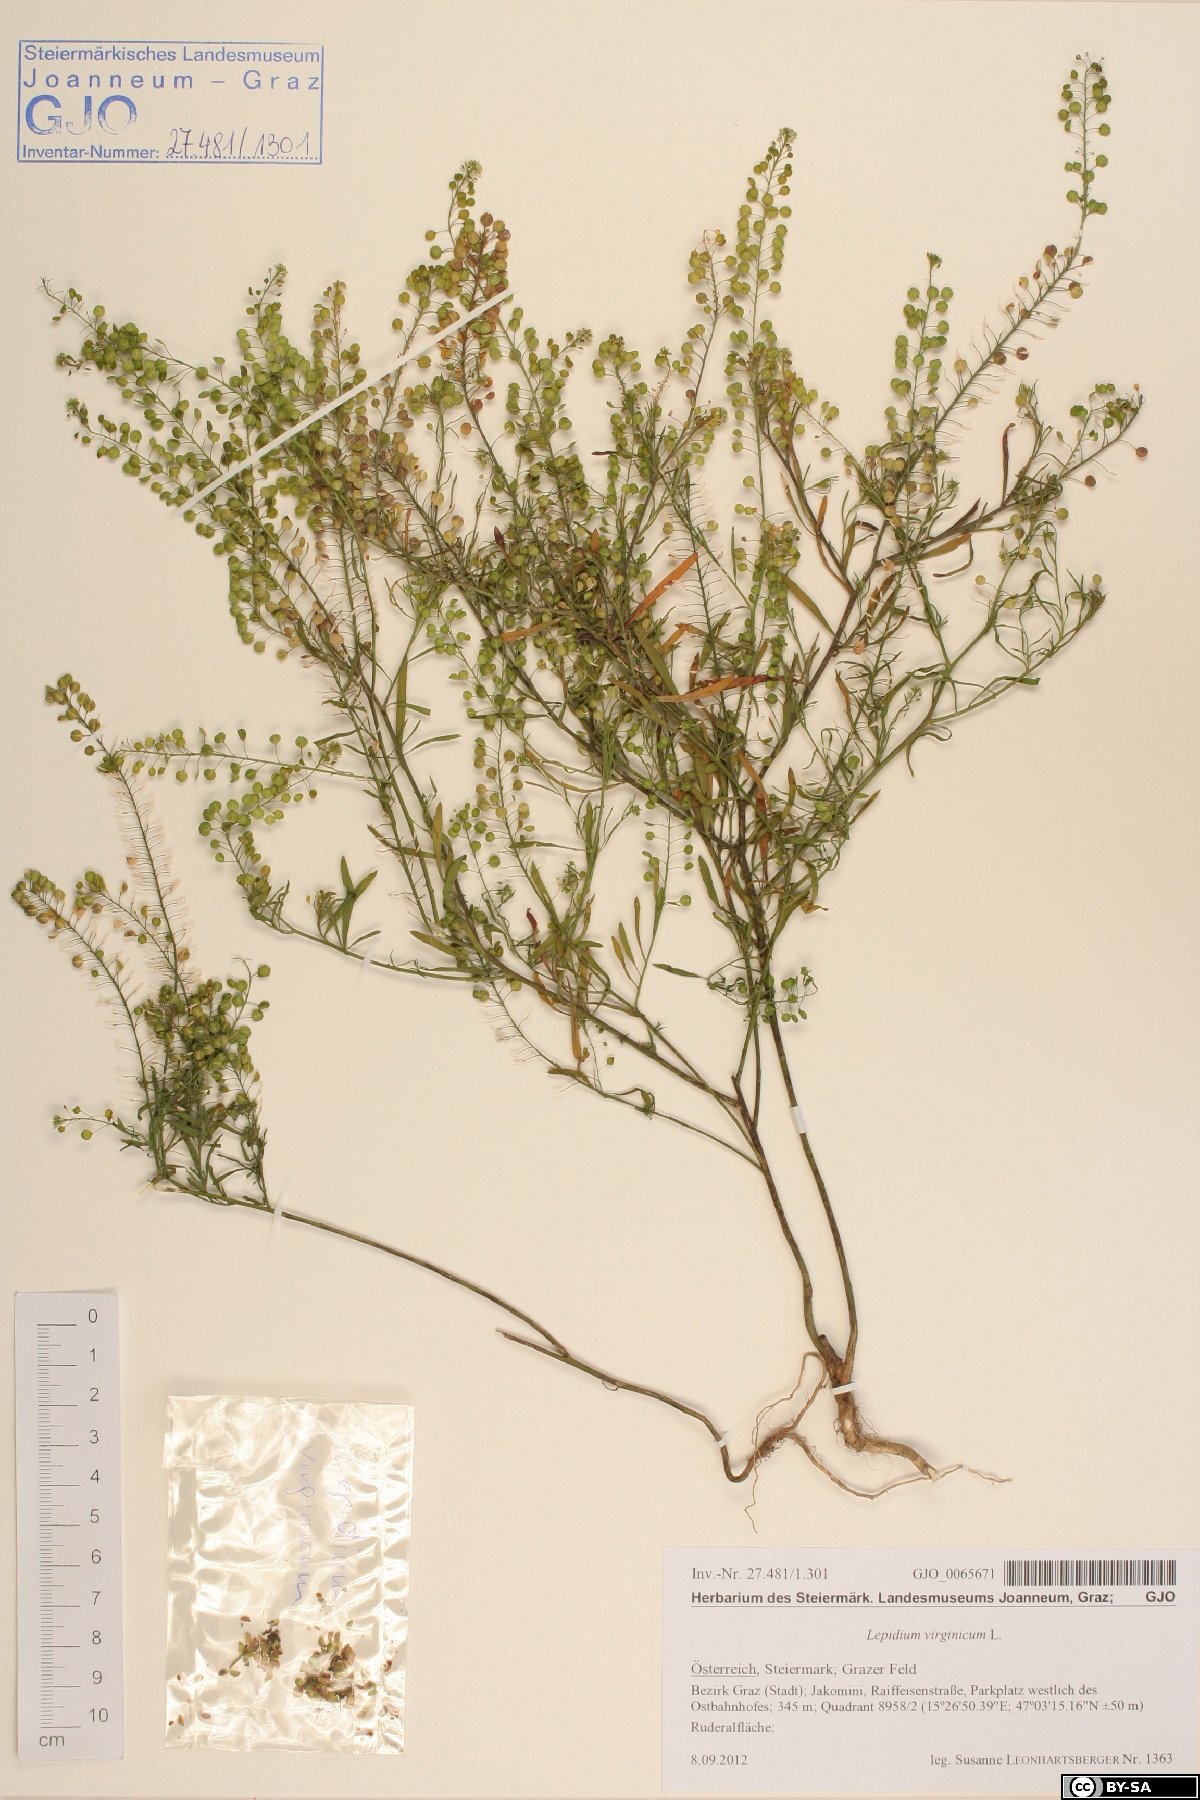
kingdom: Plantae
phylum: Tracheophyta
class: Magnoliopsida
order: Brassicales
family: Brassicaceae
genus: Lepidium
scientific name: Lepidium virginicum
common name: Least pepperwort
